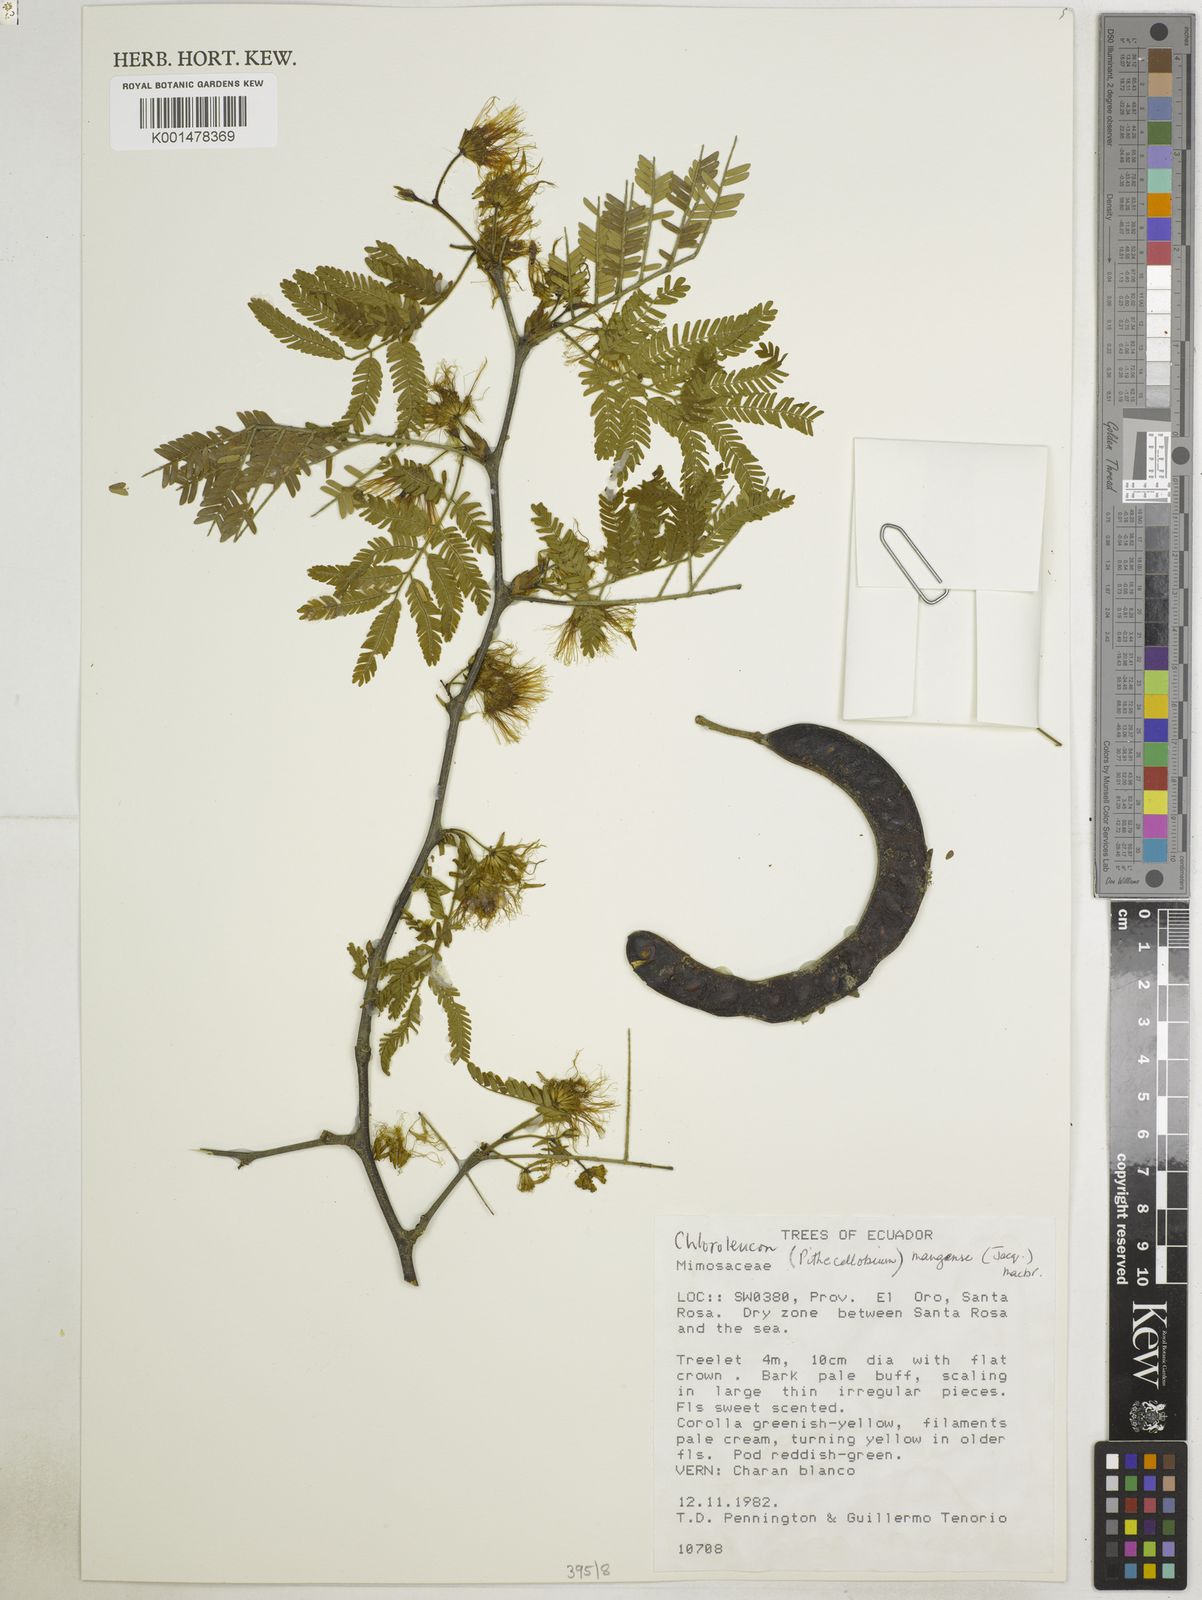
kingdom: Plantae
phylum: Tracheophyta
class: Magnoliopsida
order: Fabales
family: Fabaceae
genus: Chloroleucon
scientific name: Chloroleucon mangense
